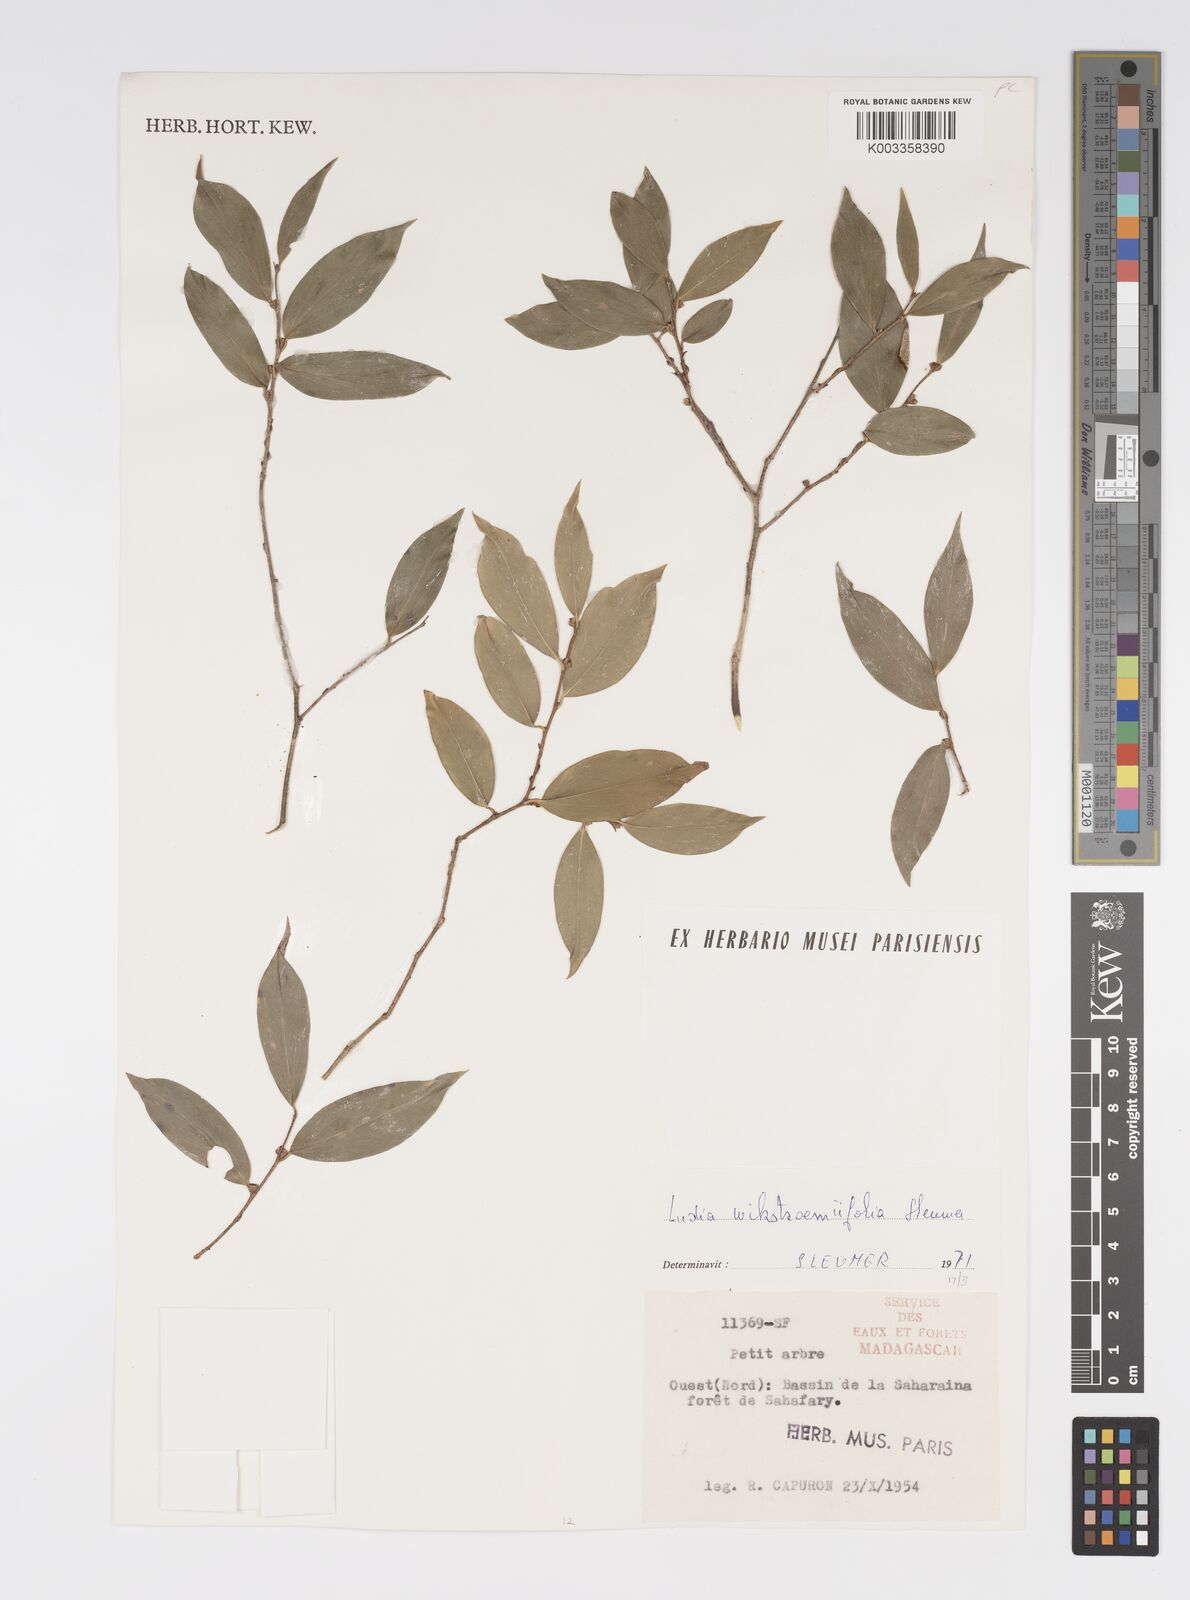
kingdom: Plantae
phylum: Tracheophyta
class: Magnoliopsida
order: Malpighiales
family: Salicaceae
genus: Ludia
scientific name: Ludia wikstroemiifolia
